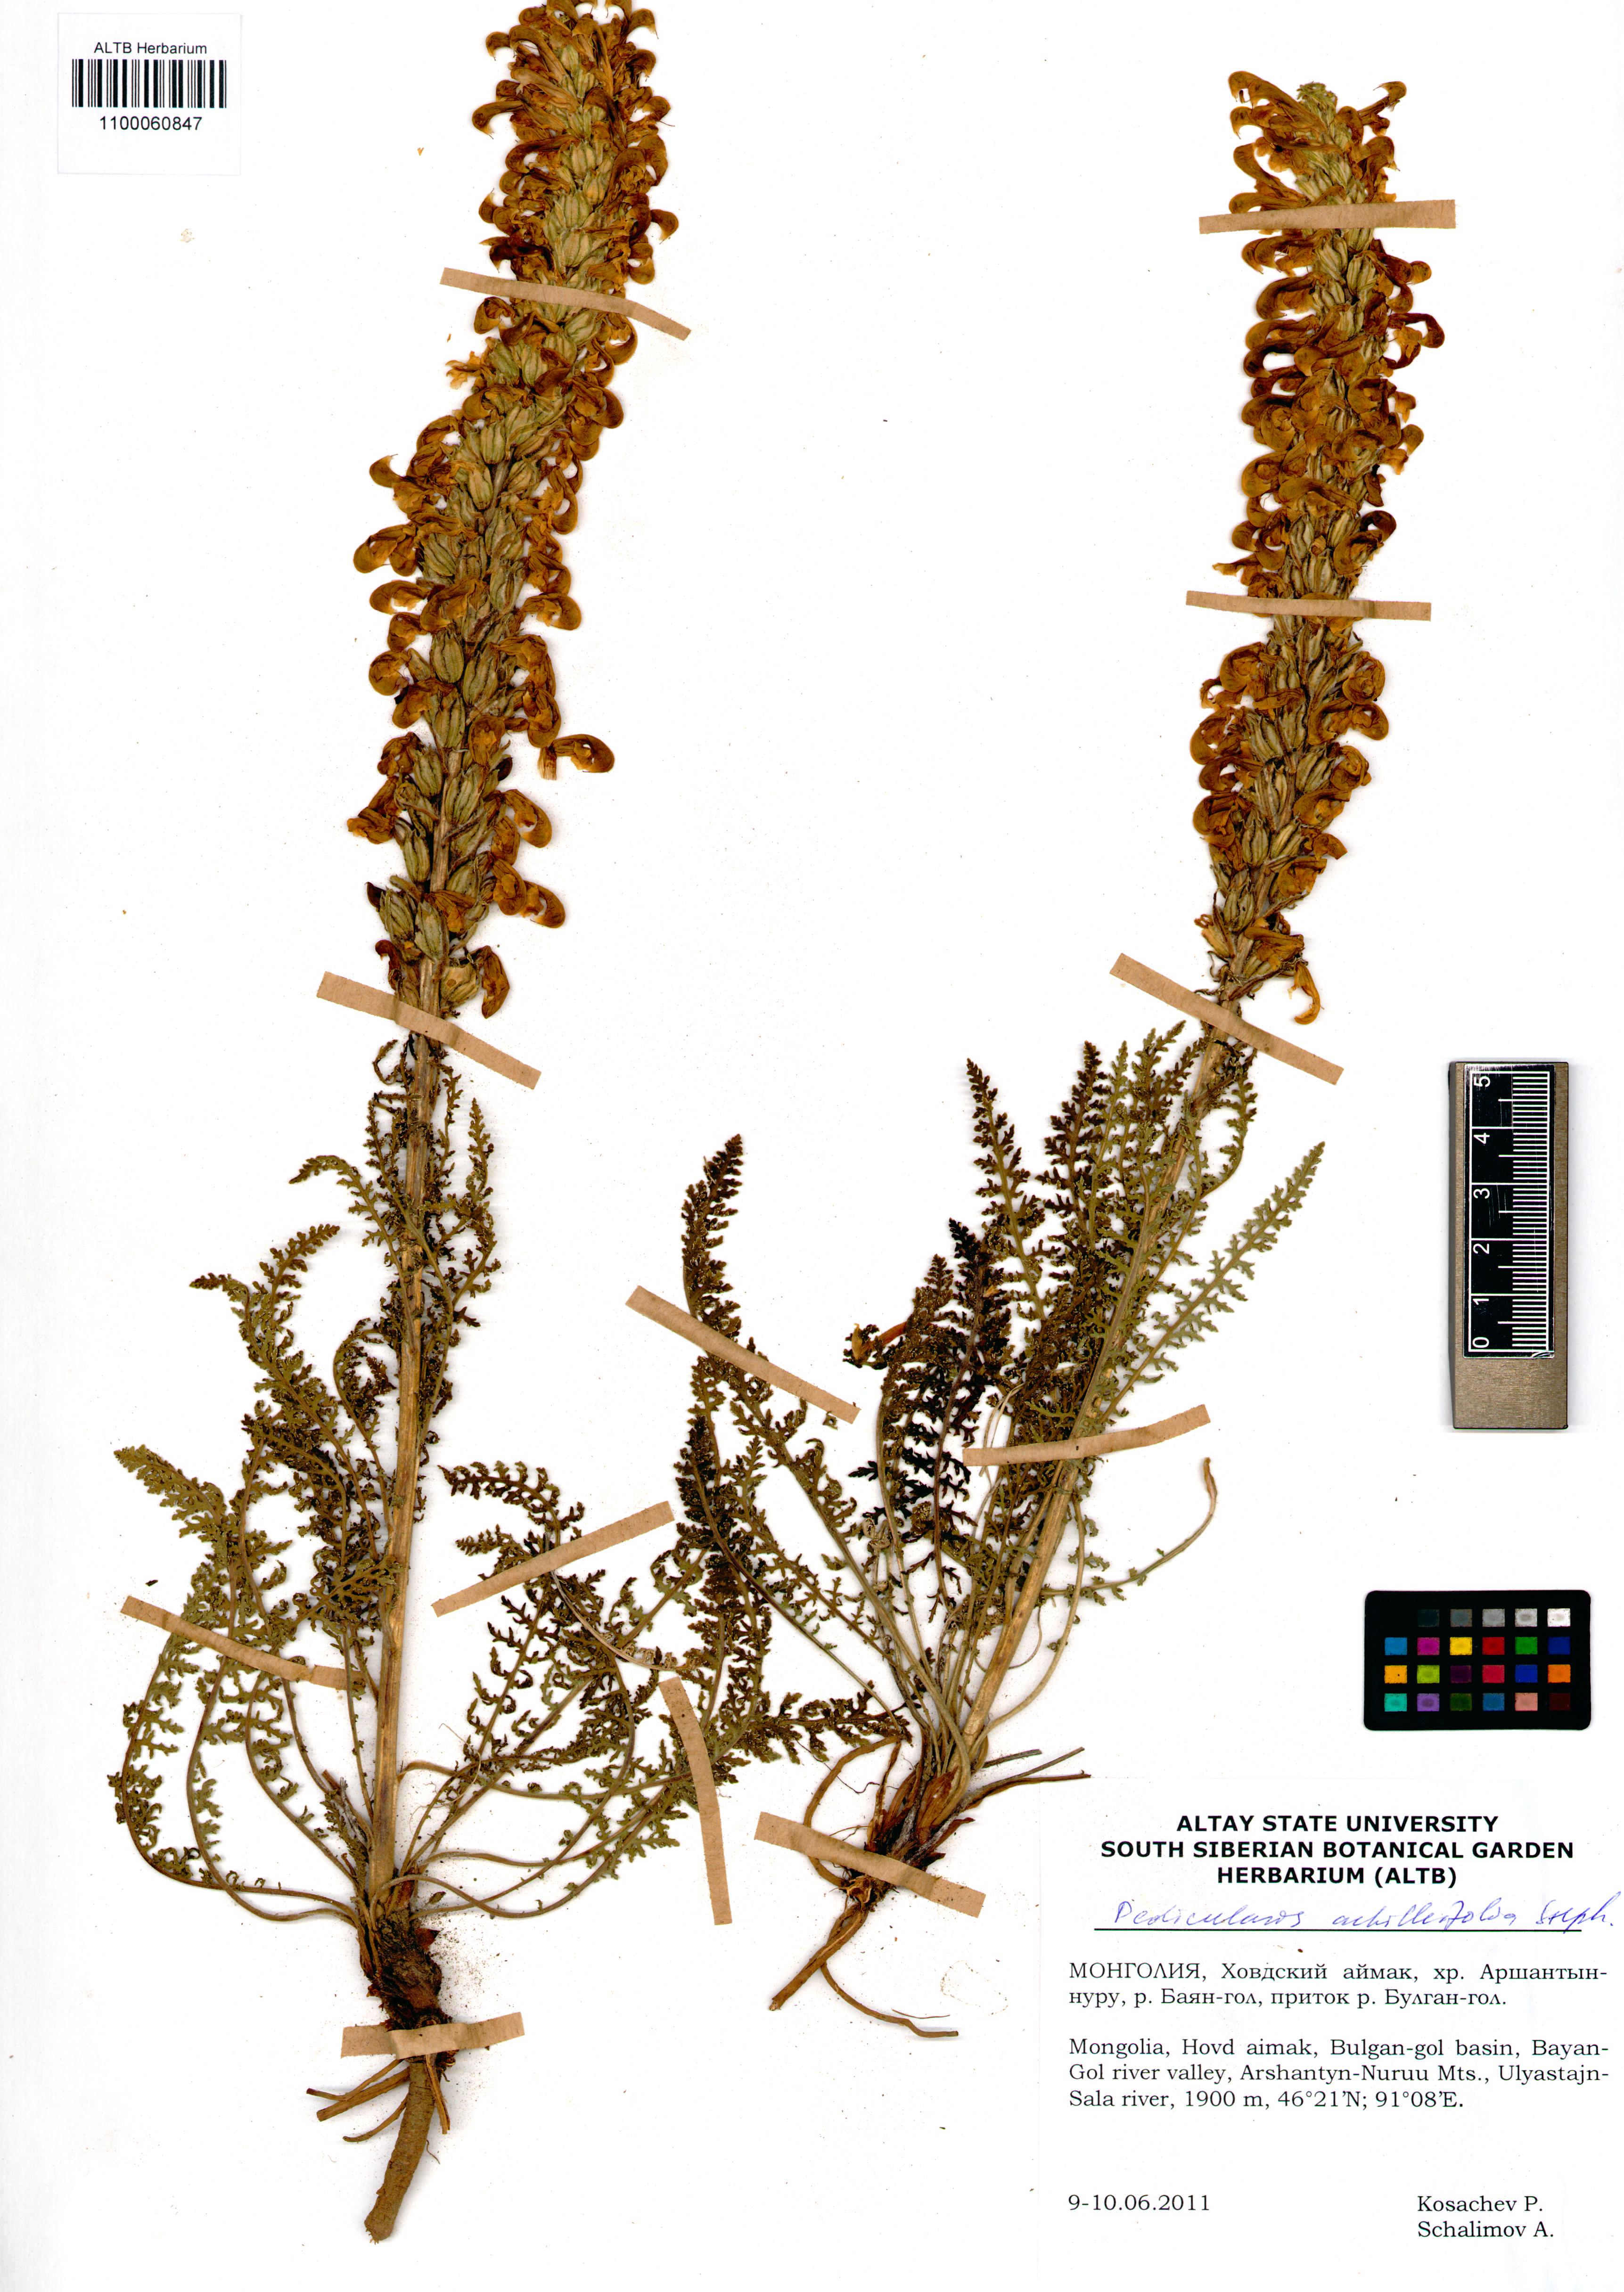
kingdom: Plantae
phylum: Tracheophyta
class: Magnoliopsida
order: Lamiales
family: Orobanchaceae
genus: Pedicularis
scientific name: Pedicularis achilleifolia
